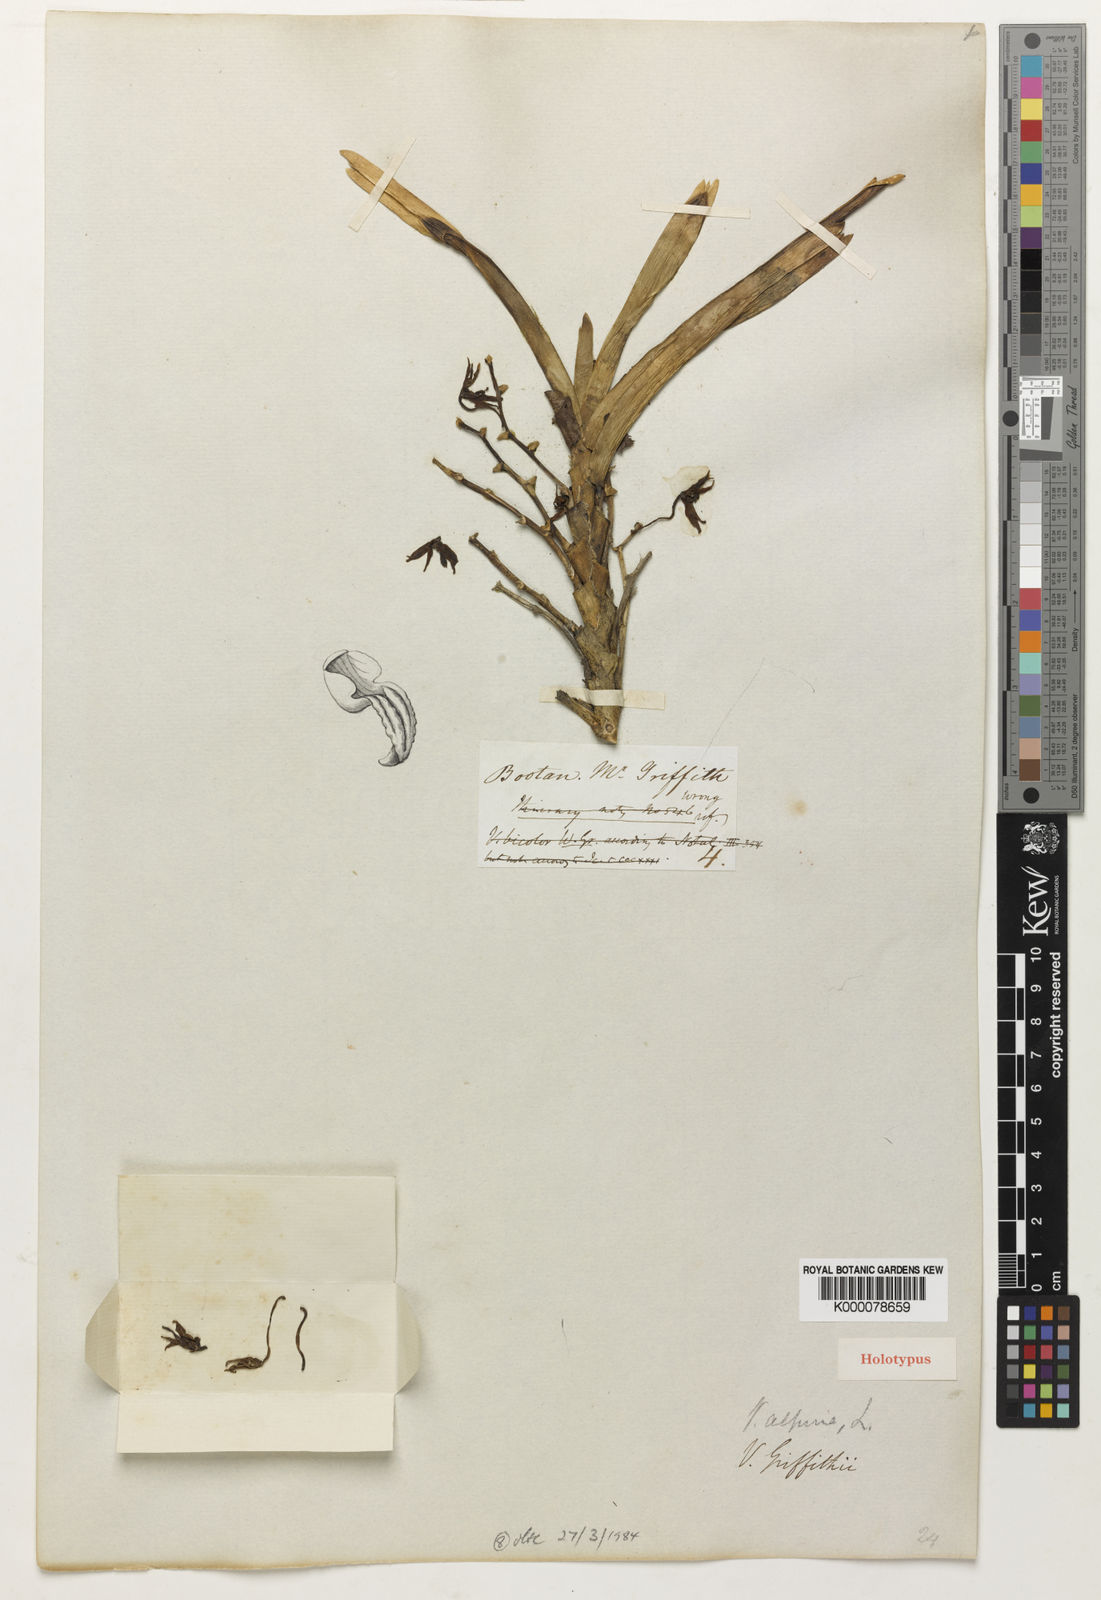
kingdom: Plantae
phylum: Tracheophyta
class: Liliopsida
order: Asparagales
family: Orchidaceae
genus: Vanda
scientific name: Vanda griffithii
